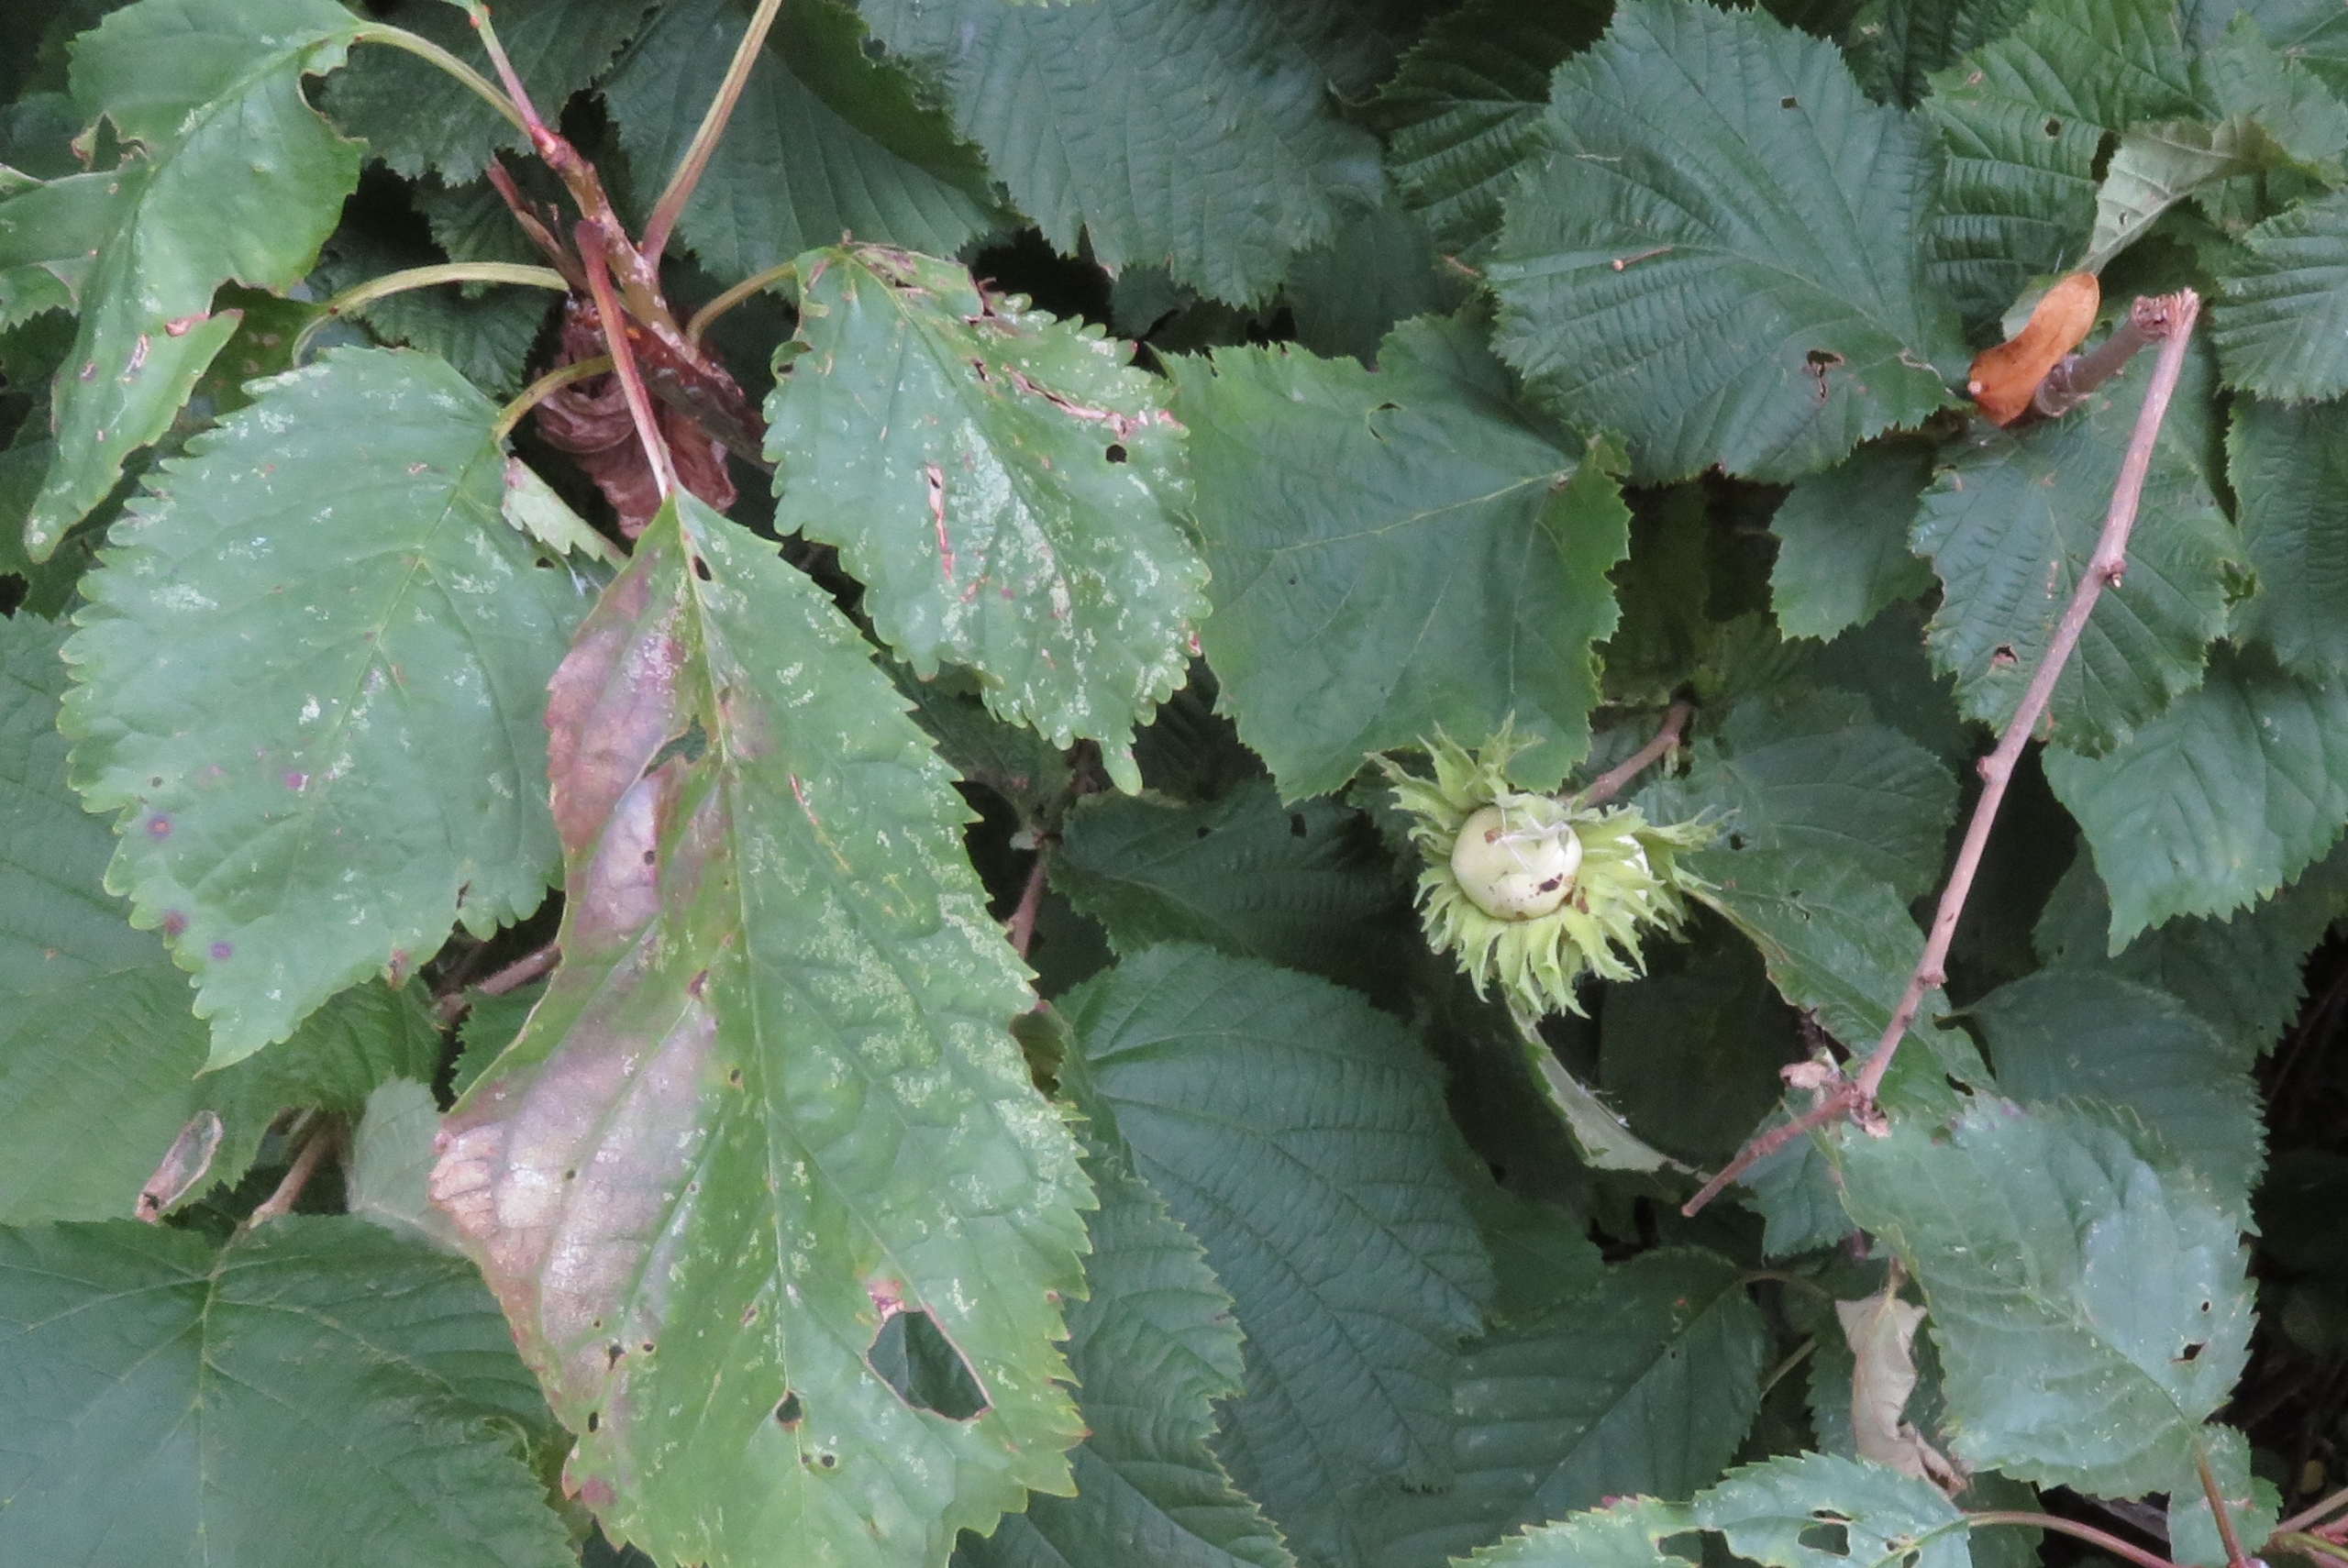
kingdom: Plantae
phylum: Tracheophyta
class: Magnoliopsida
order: Fagales
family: Betulaceae
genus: Corylus
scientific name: Corylus avellana
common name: Hassel
